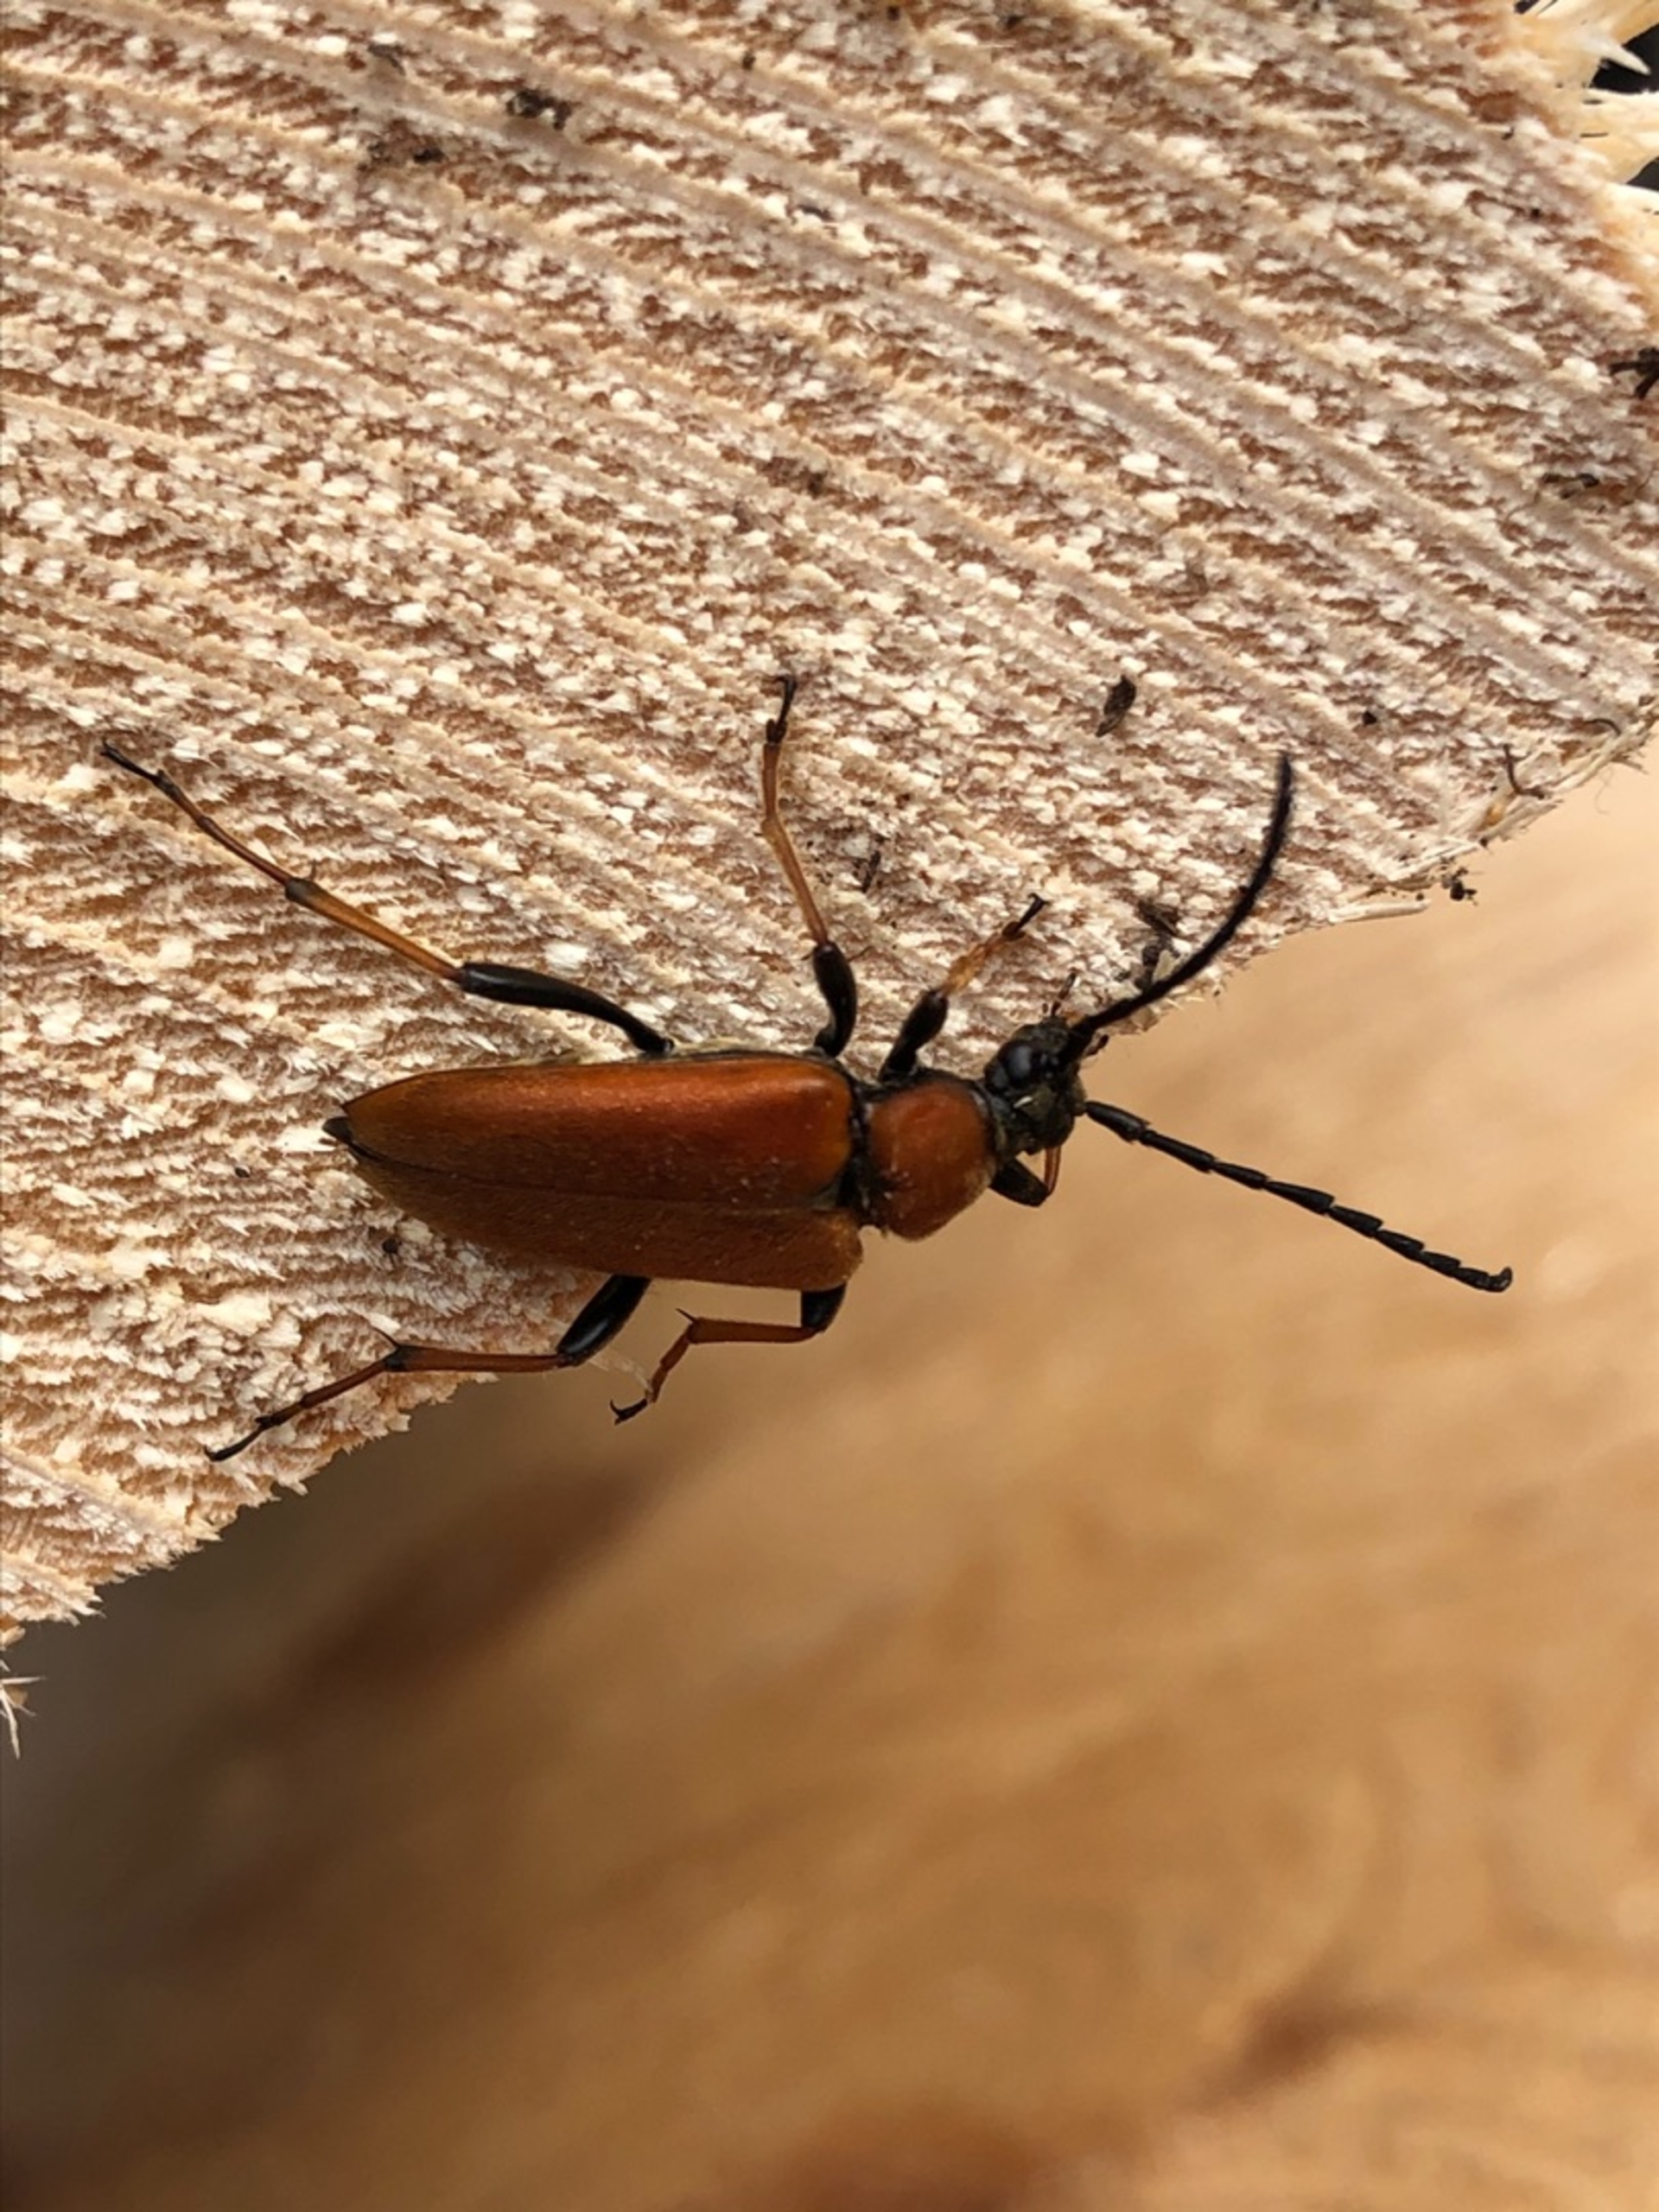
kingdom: Animalia
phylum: Arthropoda
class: Insecta
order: Coleoptera
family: Cerambycidae
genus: Stictoleptura
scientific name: Stictoleptura rubra
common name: Rød blomsterbuk
